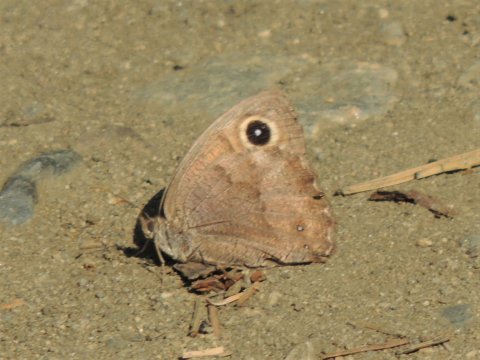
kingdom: Animalia
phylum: Arthropoda
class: Insecta
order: Lepidoptera
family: Nymphalidae
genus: Cercyonis
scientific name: Cercyonis pegala
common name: Common Wood-Nymph
